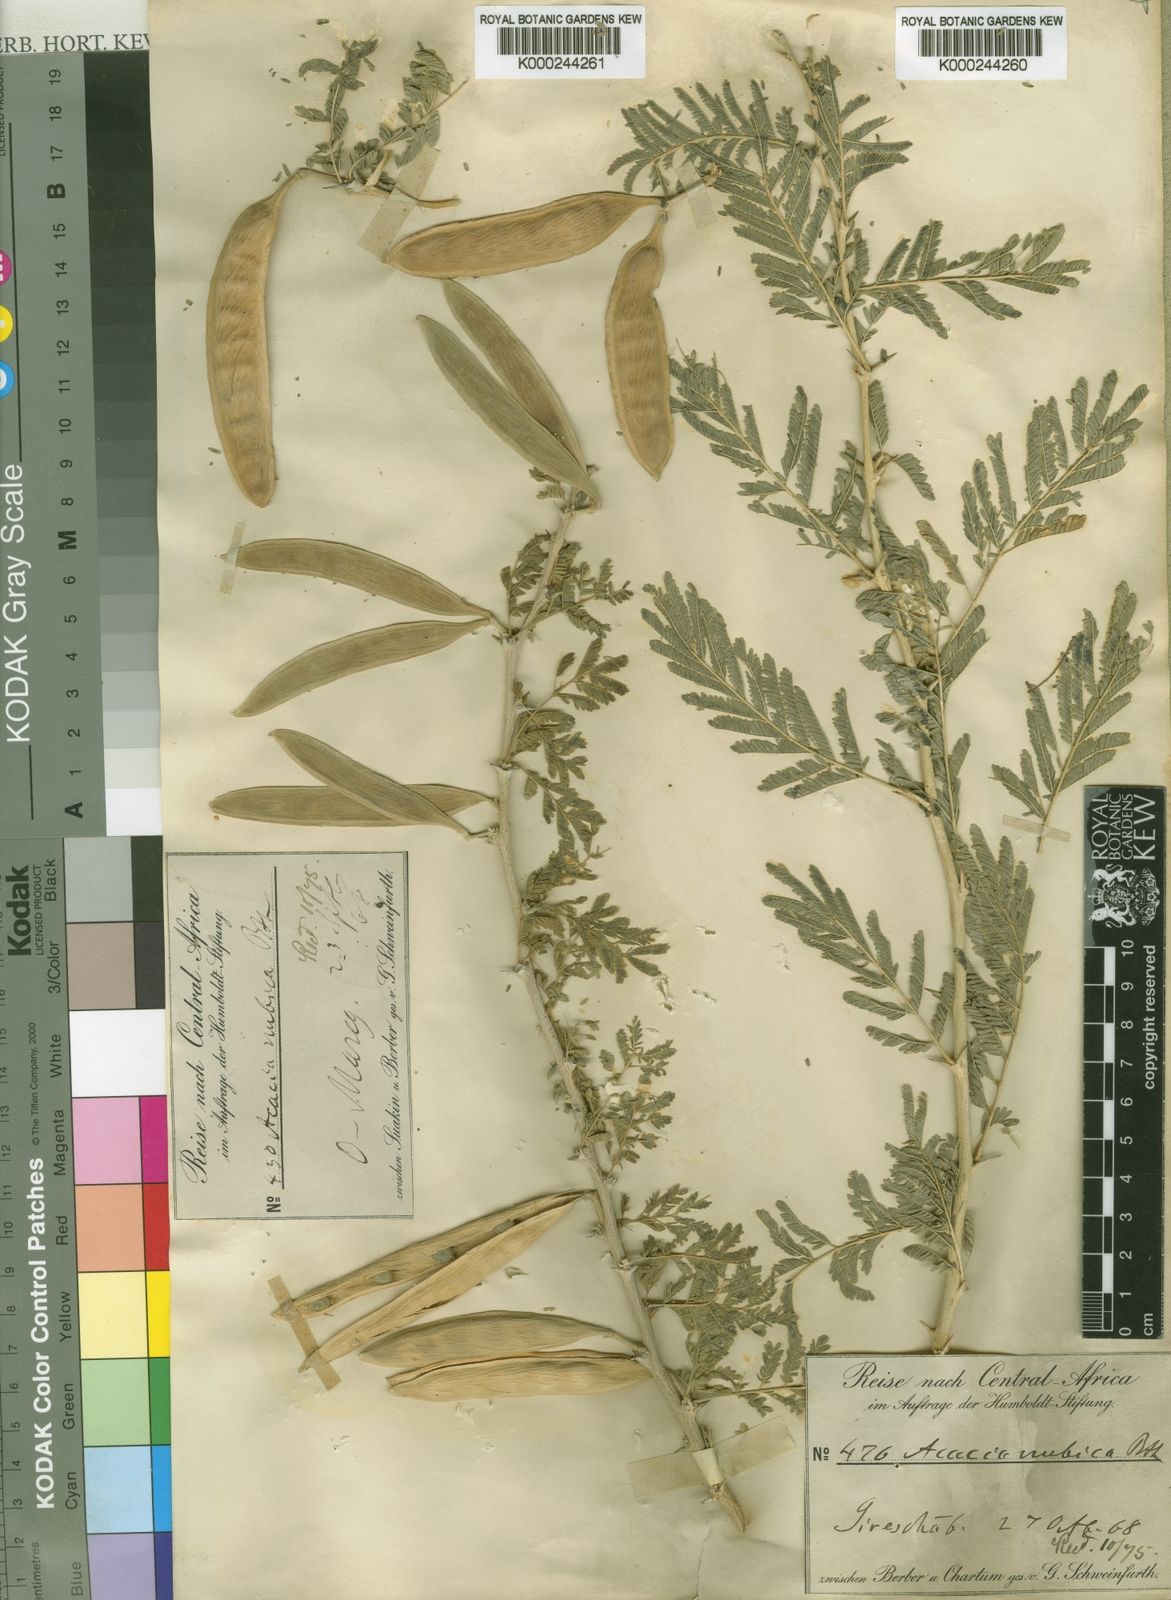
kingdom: Plantae
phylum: Tracheophyta
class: Magnoliopsida
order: Fabales
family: Fabaceae
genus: Vachellia
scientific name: Vachellia oerfota
